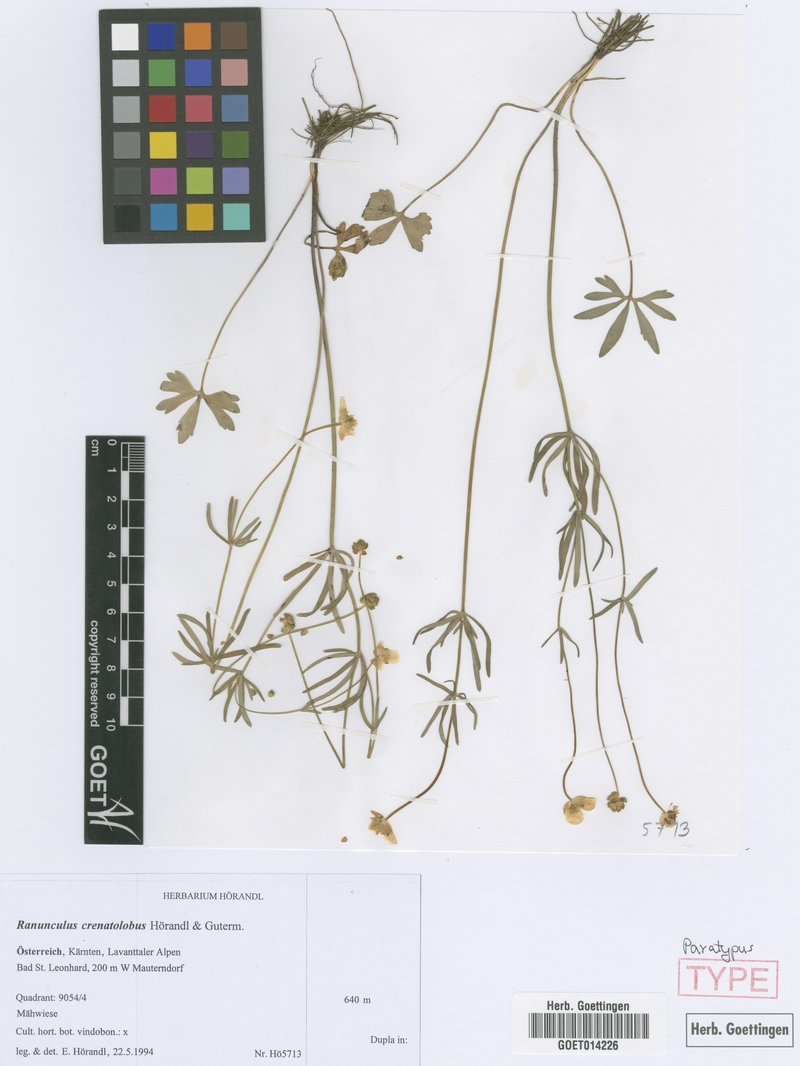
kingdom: Plantae
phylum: Tracheophyta
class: Magnoliopsida
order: Ranunculales
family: Ranunculaceae
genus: Ranunculus
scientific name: Ranunculus crenatolobus
